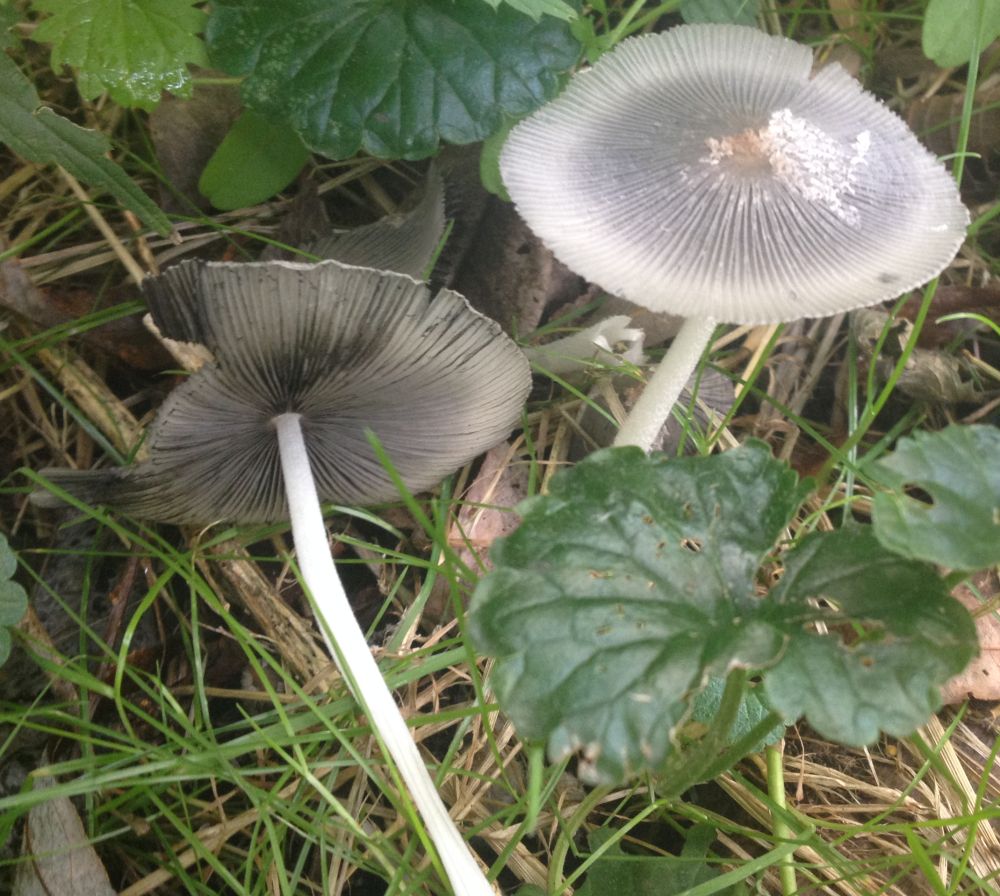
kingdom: Fungi
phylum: Basidiomycota
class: Agaricomycetes
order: Agaricales
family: Psathyrellaceae
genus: Coprinopsis
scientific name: Coprinopsis lagopus
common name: dunstokket blækhat
